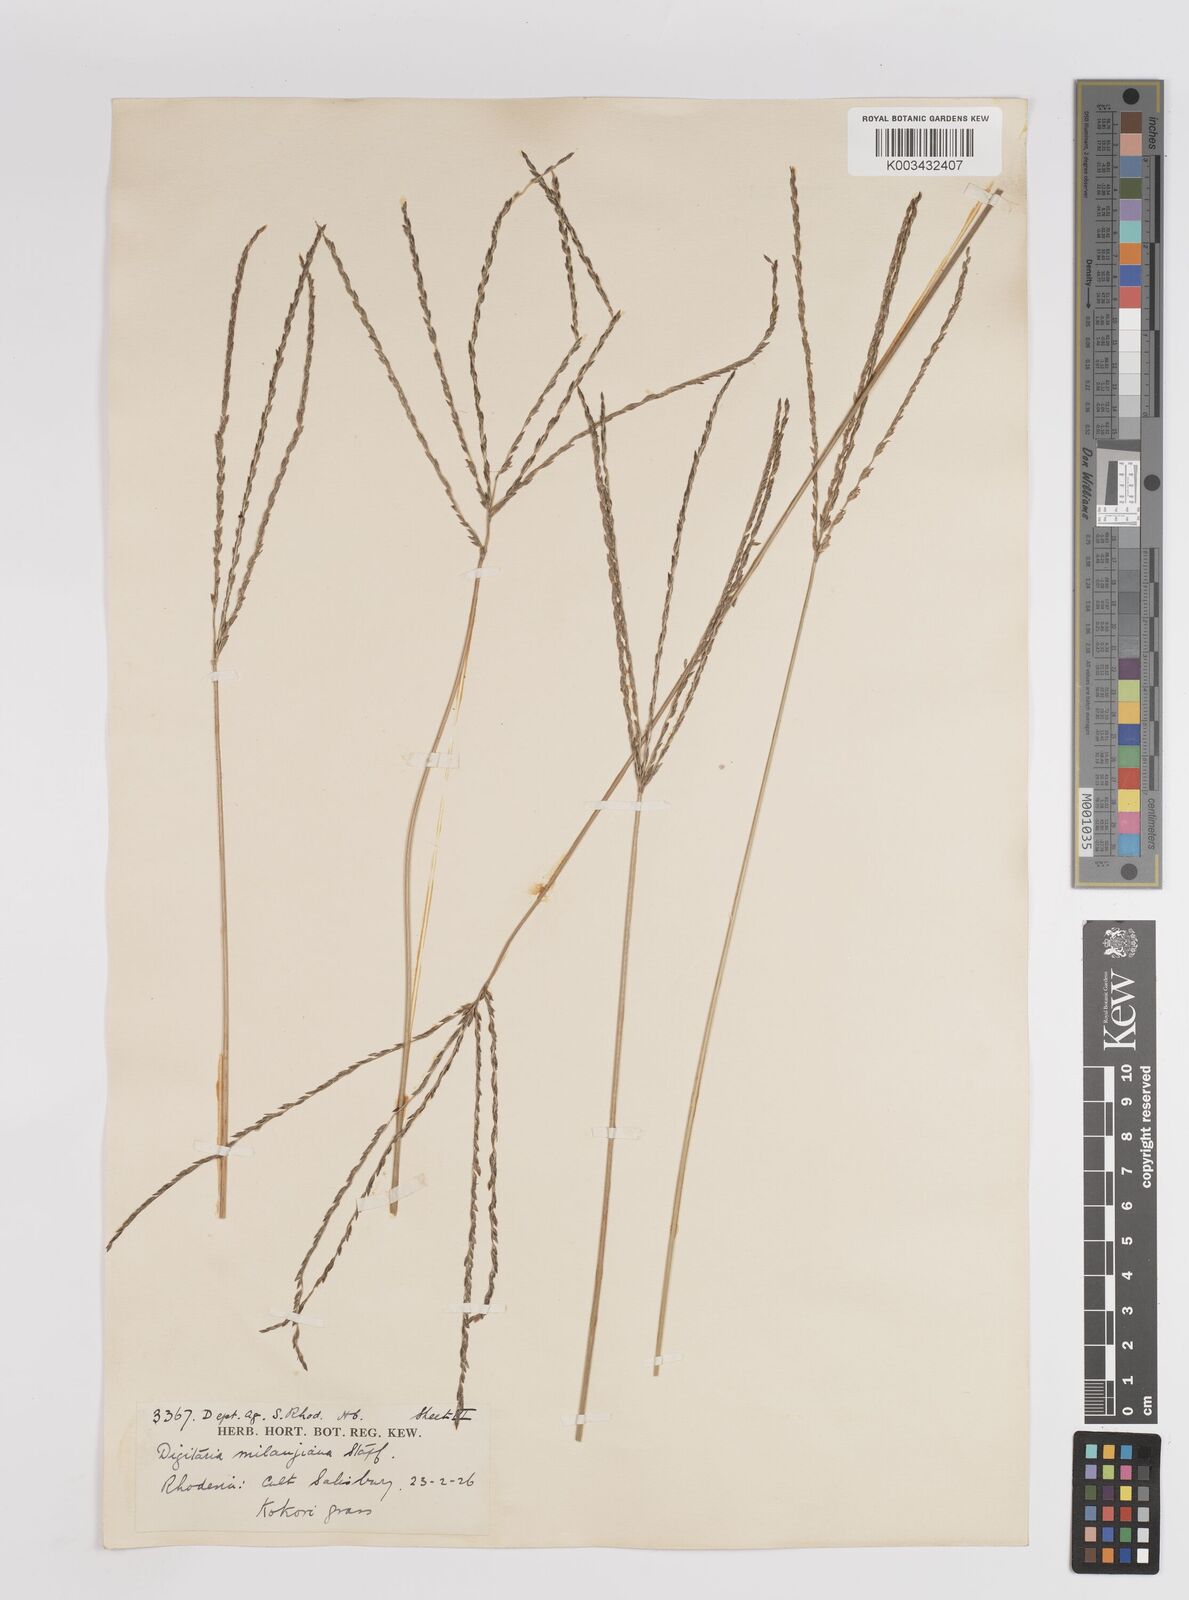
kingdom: Plantae
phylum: Tracheophyta
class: Liliopsida
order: Poales
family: Poaceae
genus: Digitaria
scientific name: Digitaria eriantha
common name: Digitgrass
